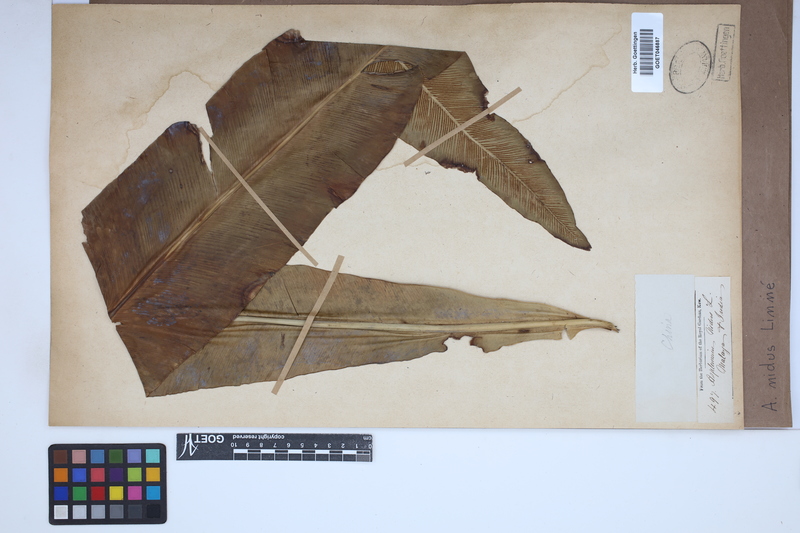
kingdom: Plantae
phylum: Tracheophyta
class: Polypodiopsida
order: Polypodiales
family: Aspleniaceae
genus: Asplenium
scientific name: Asplenium nidus
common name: Bird's-nest fern
